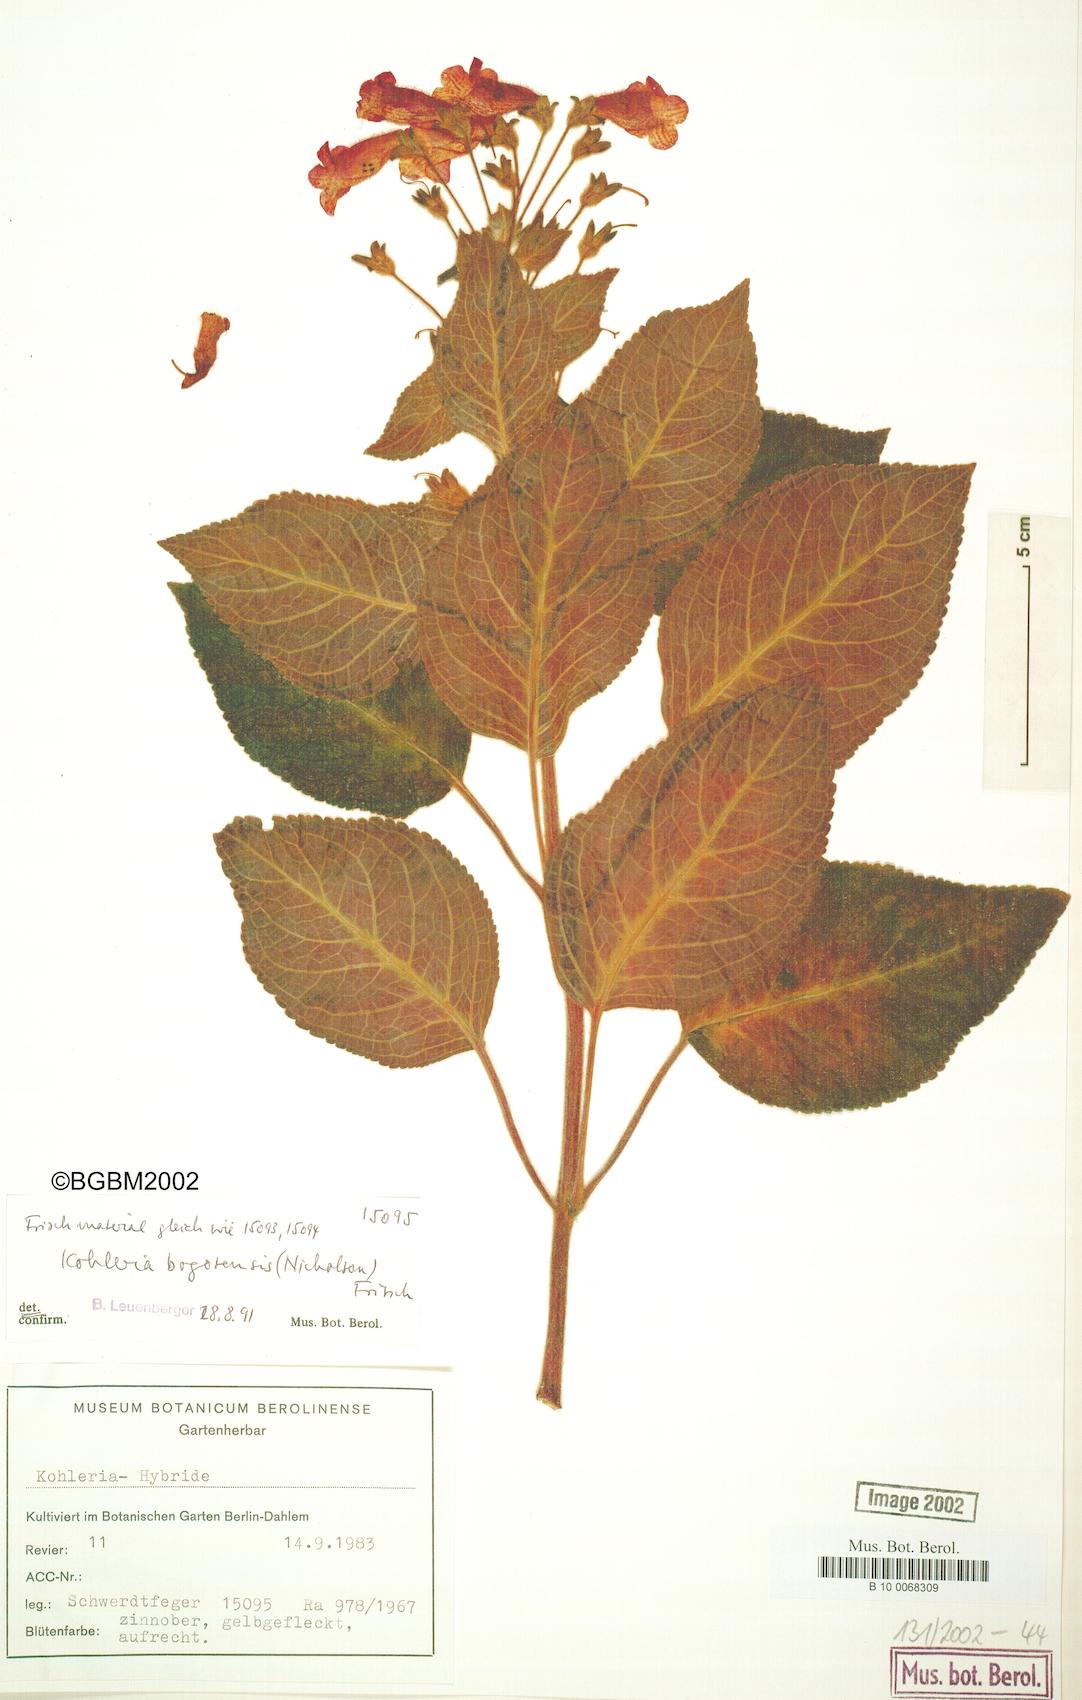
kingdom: Plantae
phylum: Tracheophyta
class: Magnoliopsida
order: Lamiales
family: Gesneriaceae
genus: Kohleria
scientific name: Kohleria amabilis
